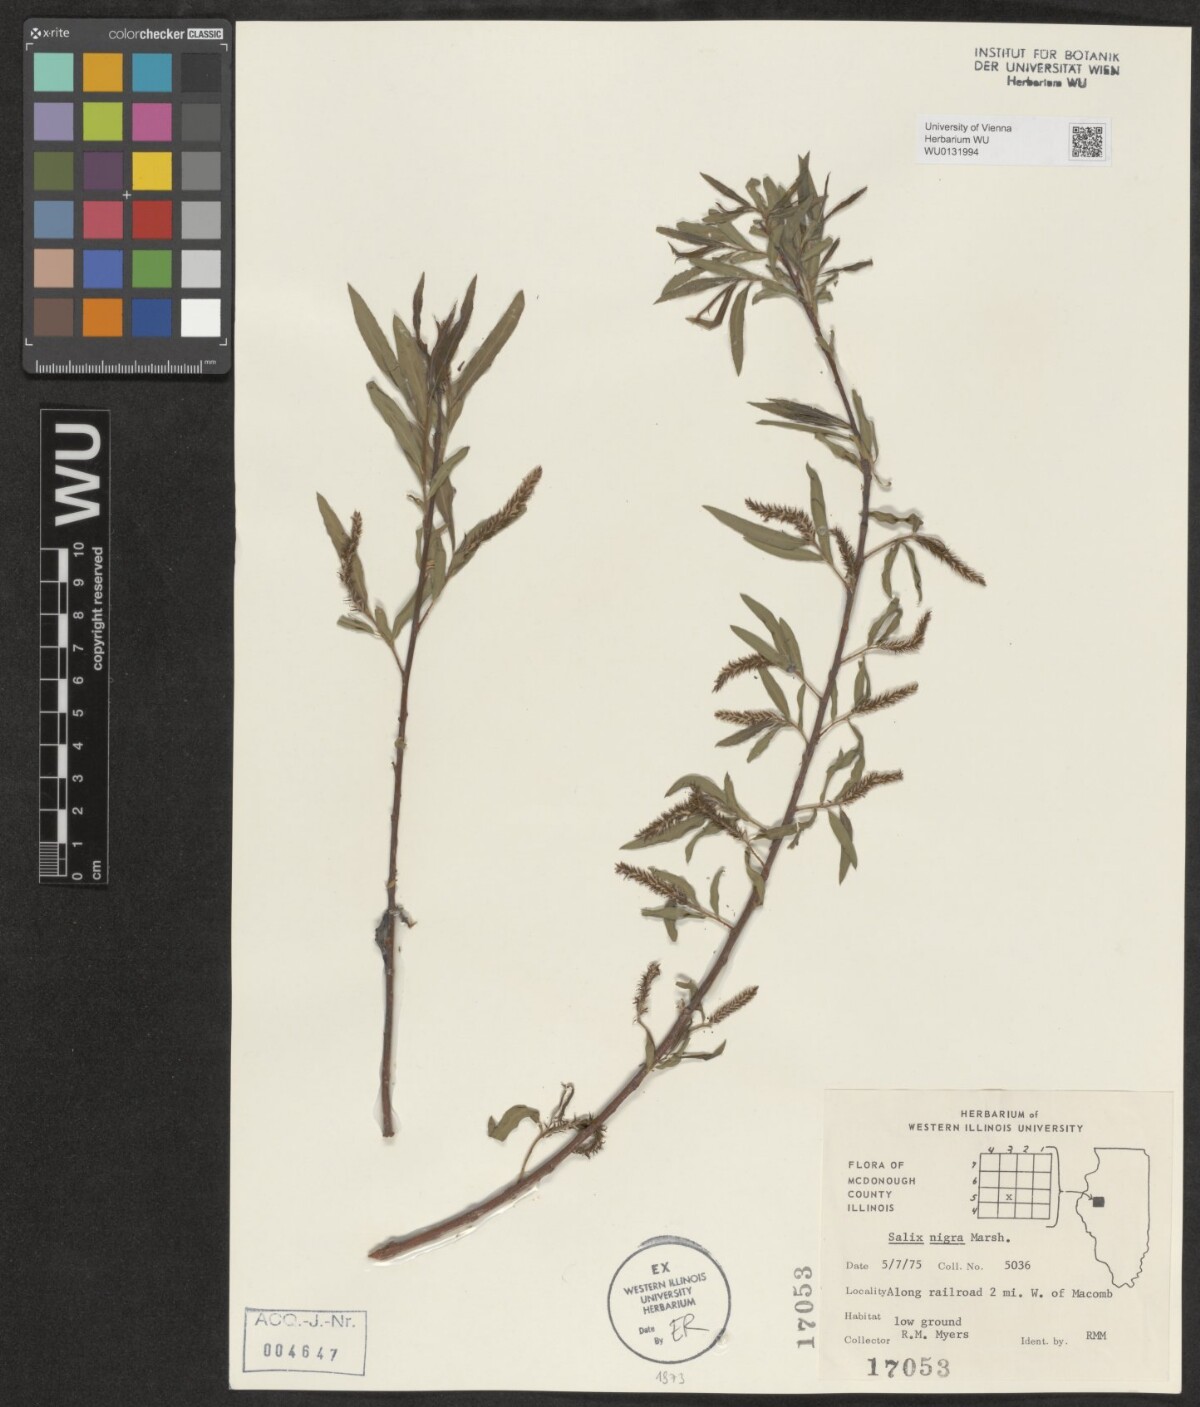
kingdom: Plantae
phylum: Tracheophyta
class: Magnoliopsida
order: Malpighiales
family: Salicaceae
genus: Salix
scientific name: Salix nigra
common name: Black willow
